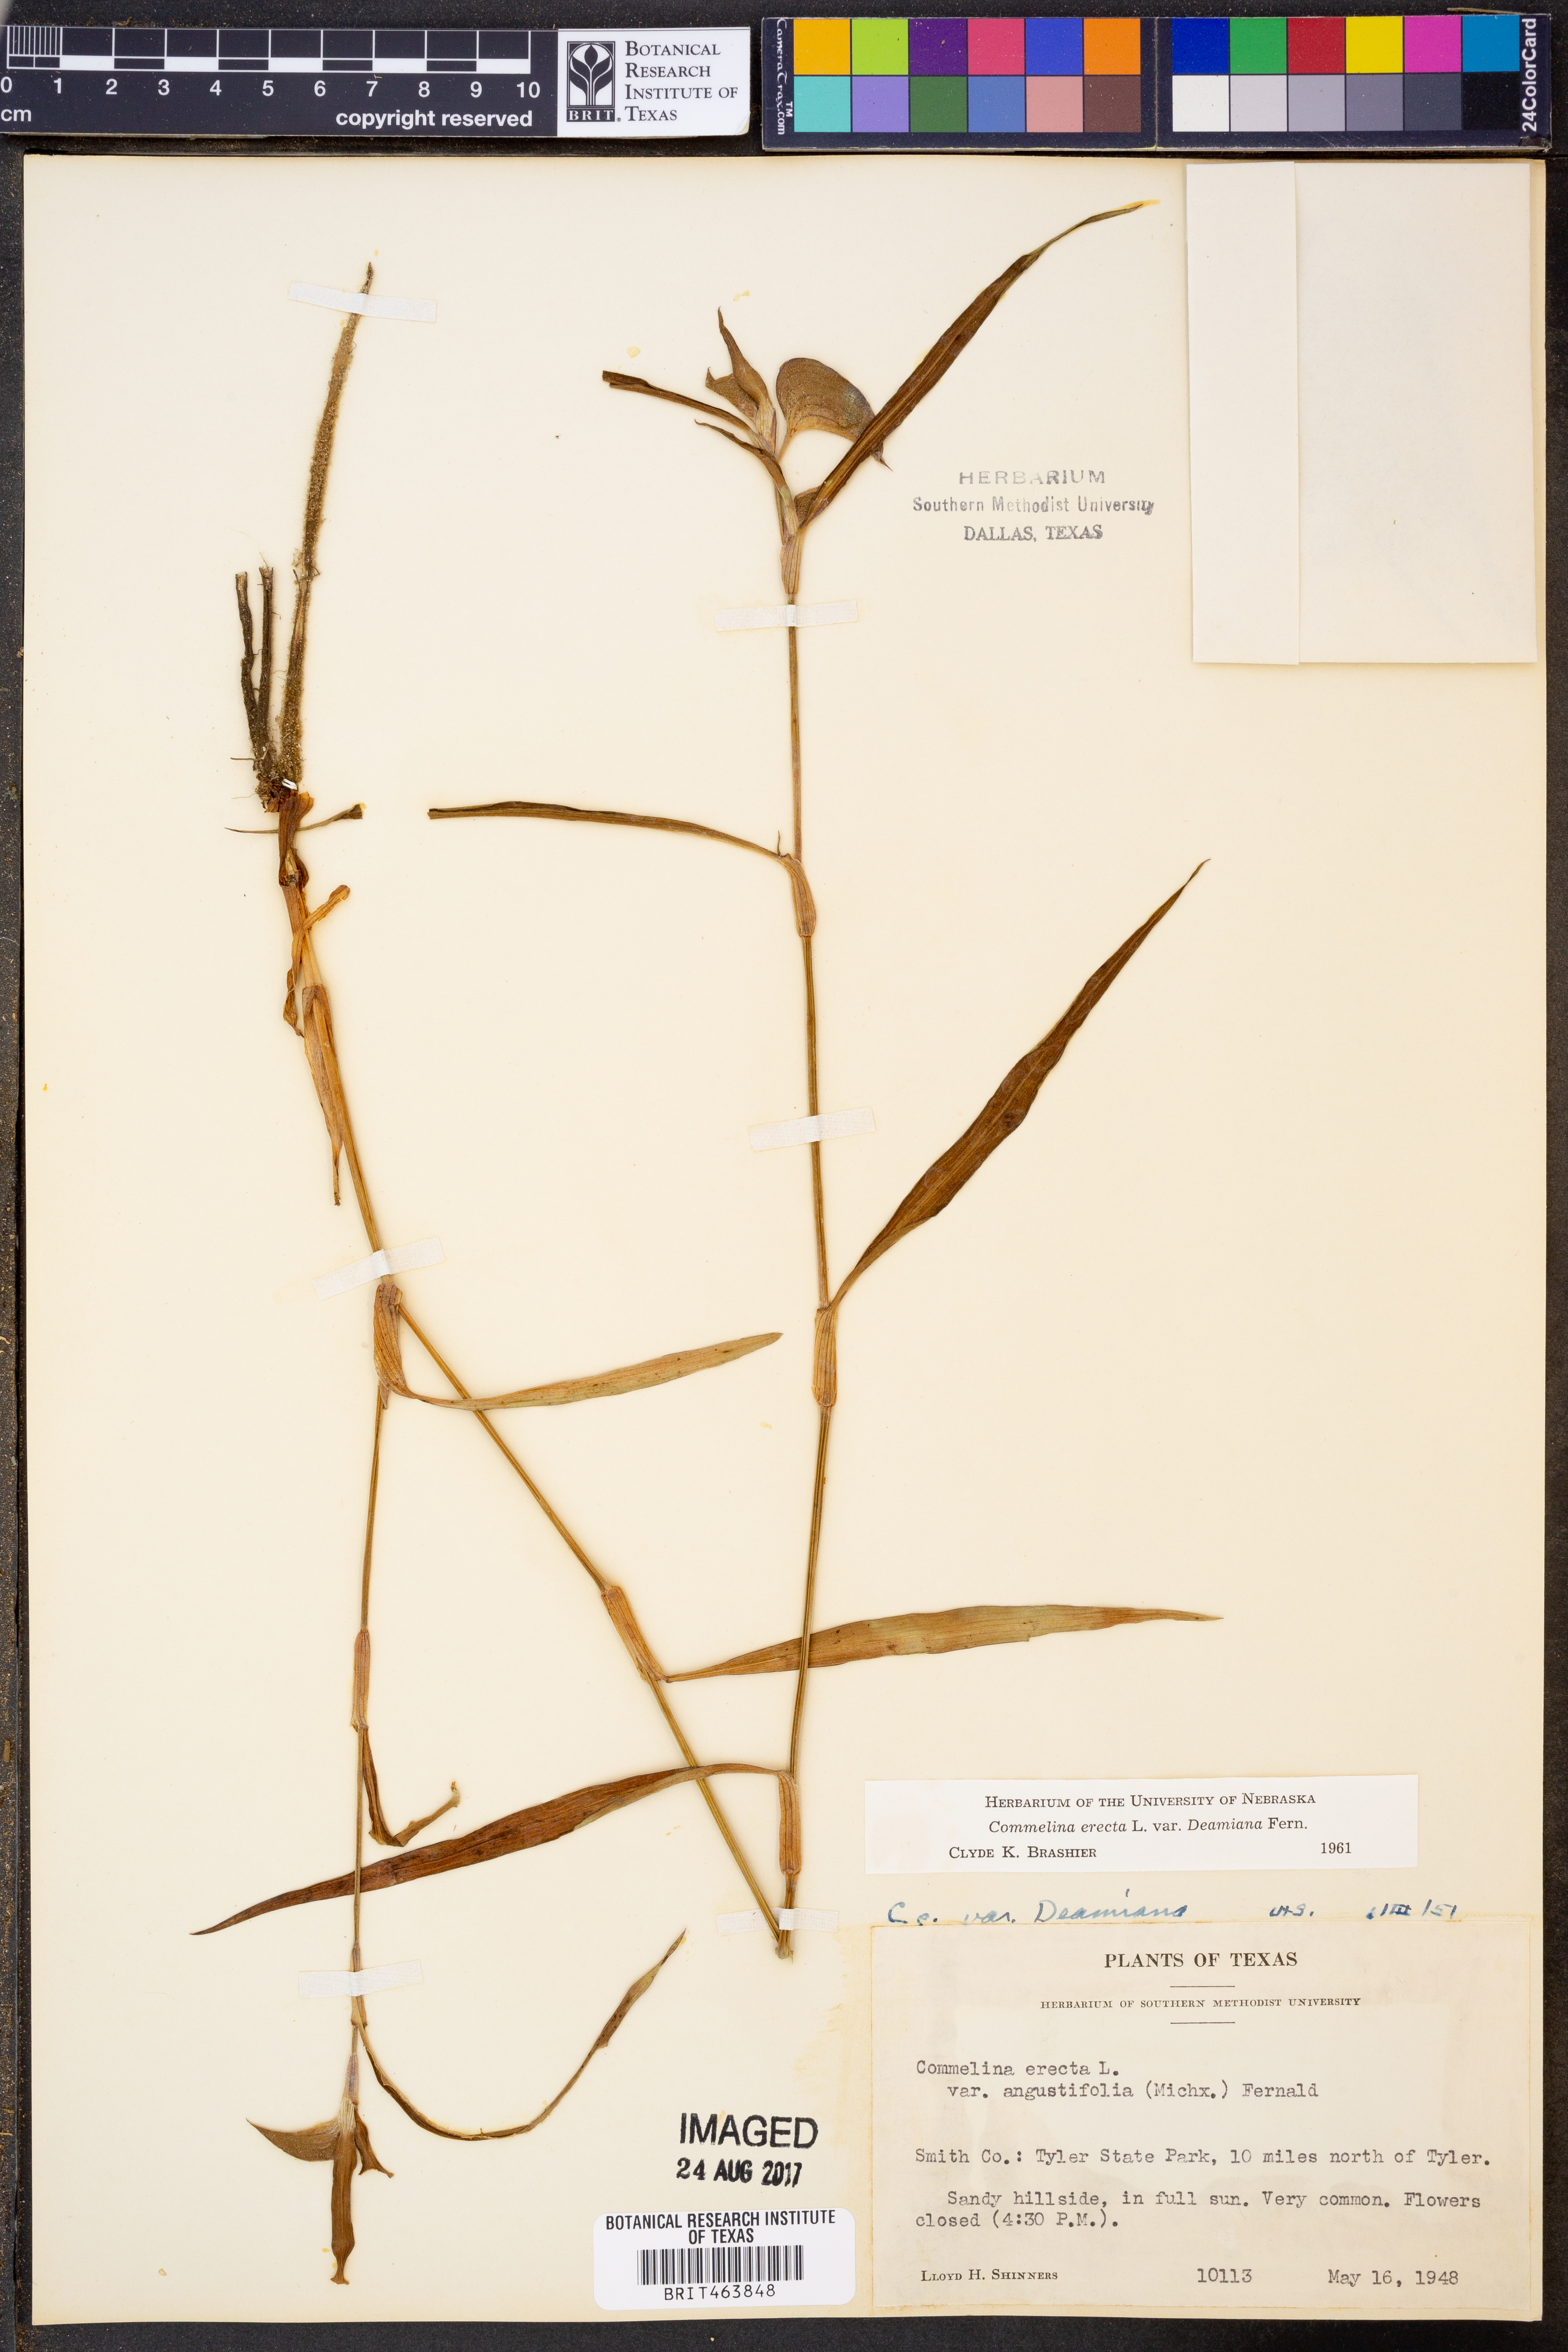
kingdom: Plantae
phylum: Tracheophyta
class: Liliopsida
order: Commelinales
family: Commelinaceae
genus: Commelina
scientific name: Commelina erecta
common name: Blousel blommetjie
